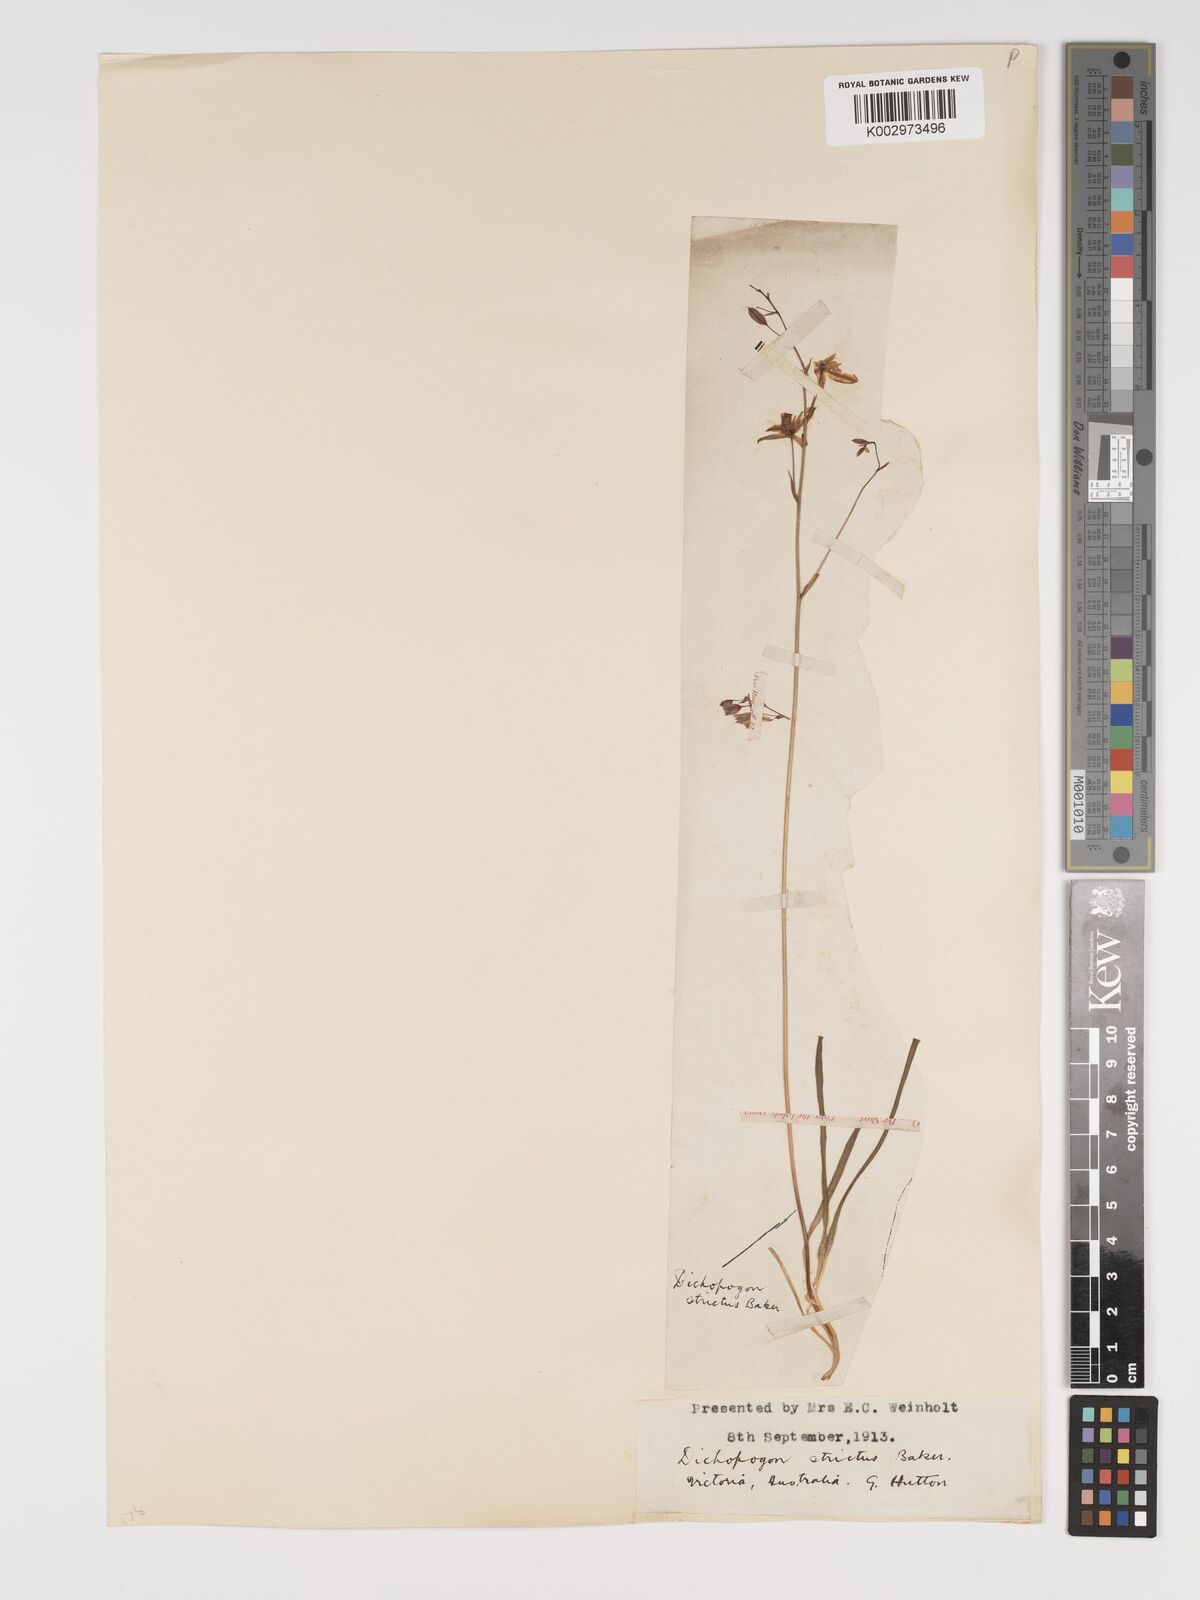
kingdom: Plantae
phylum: Tracheophyta
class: Liliopsida
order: Asparagales
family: Asparagaceae
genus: Arthropodium
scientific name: Arthropodium strictum
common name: Chocolate-lily
